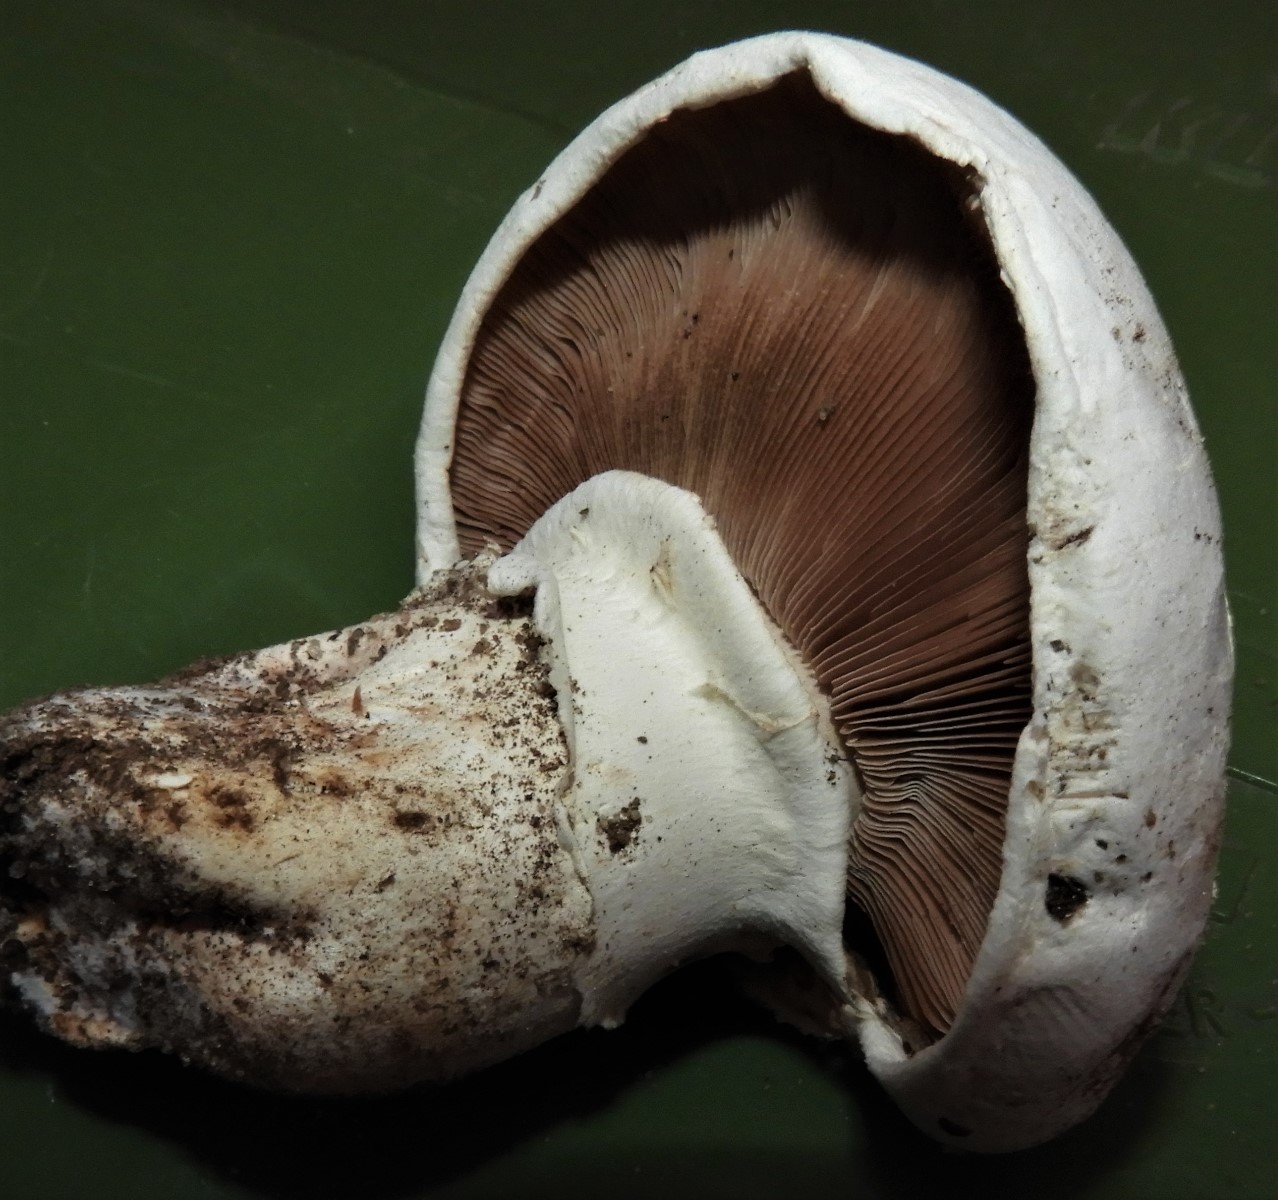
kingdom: Fungi
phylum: Basidiomycota
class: Agaricomycetes
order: Agaricales
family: Agaricaceae
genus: Agaricus
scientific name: Agaricus bitorquis
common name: vej-champignon
